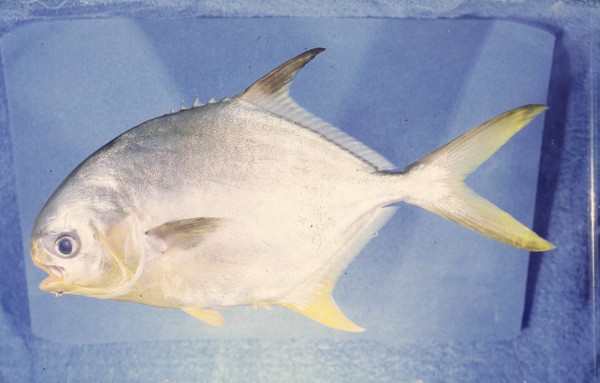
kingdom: Animalia
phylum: Chordata
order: Perciformes
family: Carangidae
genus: Trachinotus
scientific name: Trachinotus africanus
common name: Southern pompano
